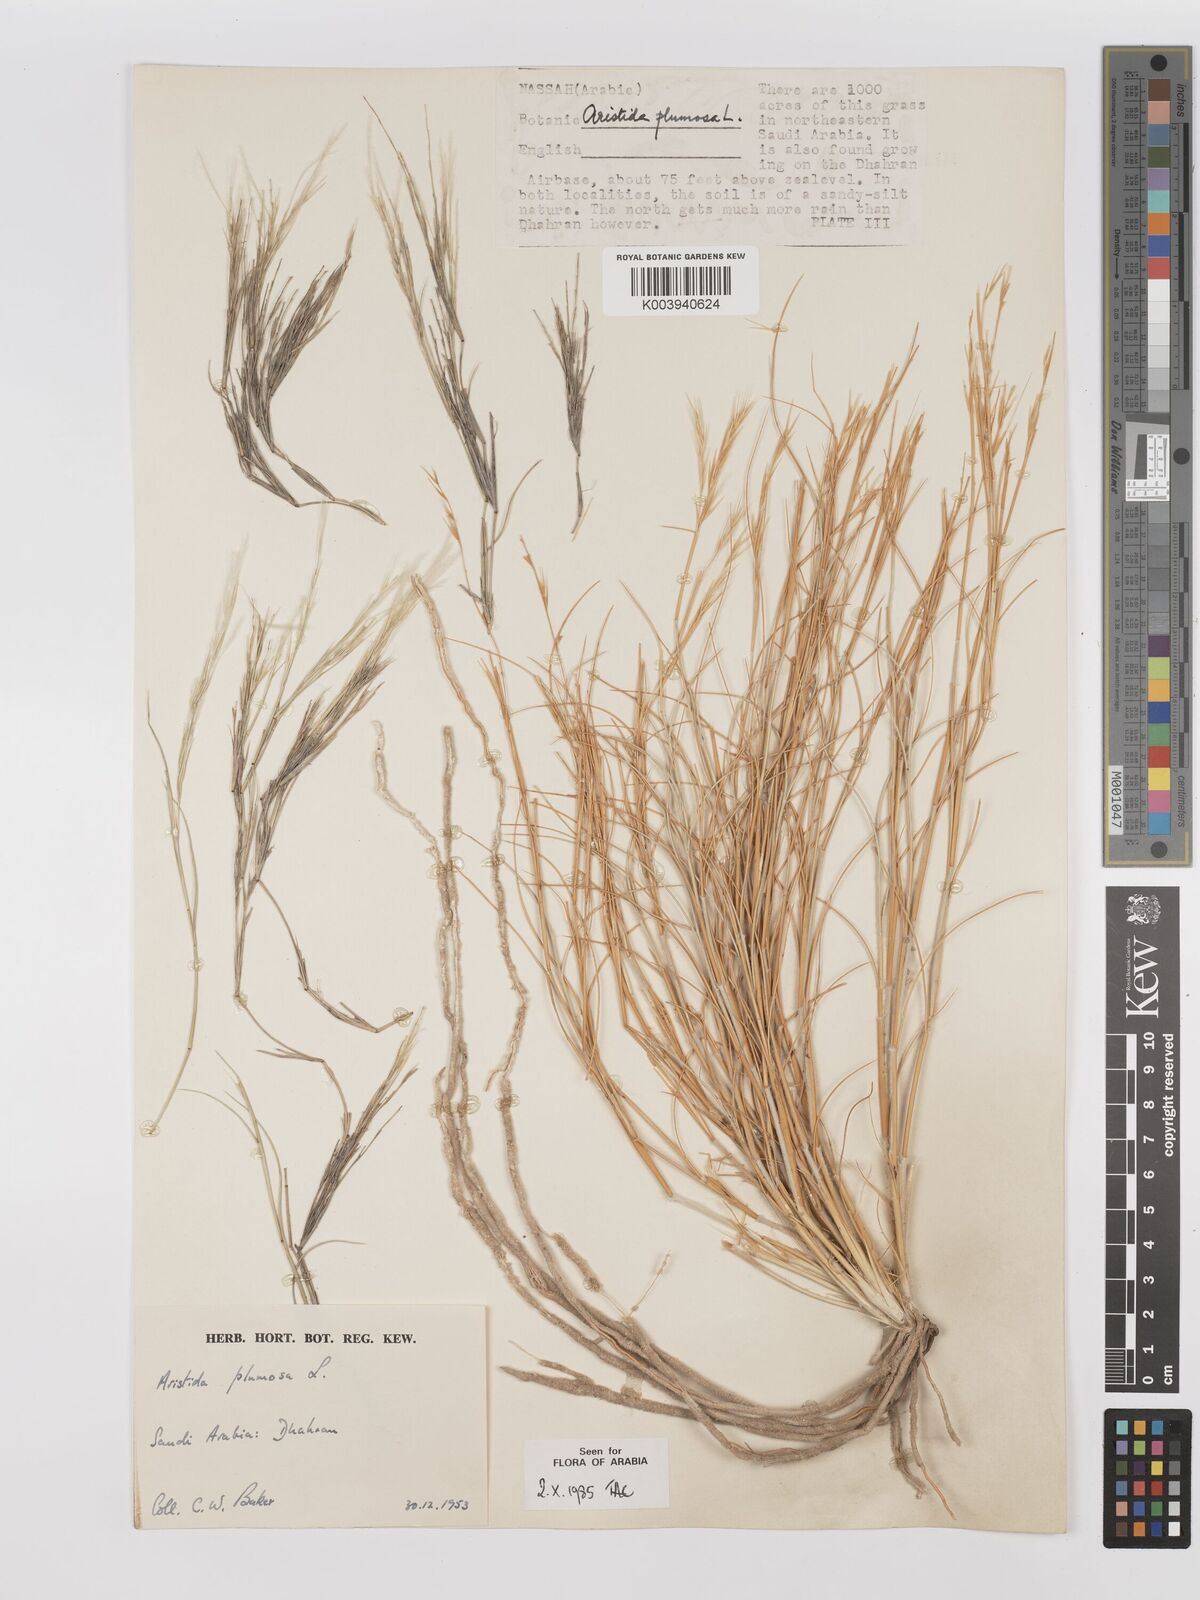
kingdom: Plantae
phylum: Tracheophyta
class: Liliopsida
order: Poales
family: Poaceae
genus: Stipagrostis
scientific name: Stipagrostis plumosa
